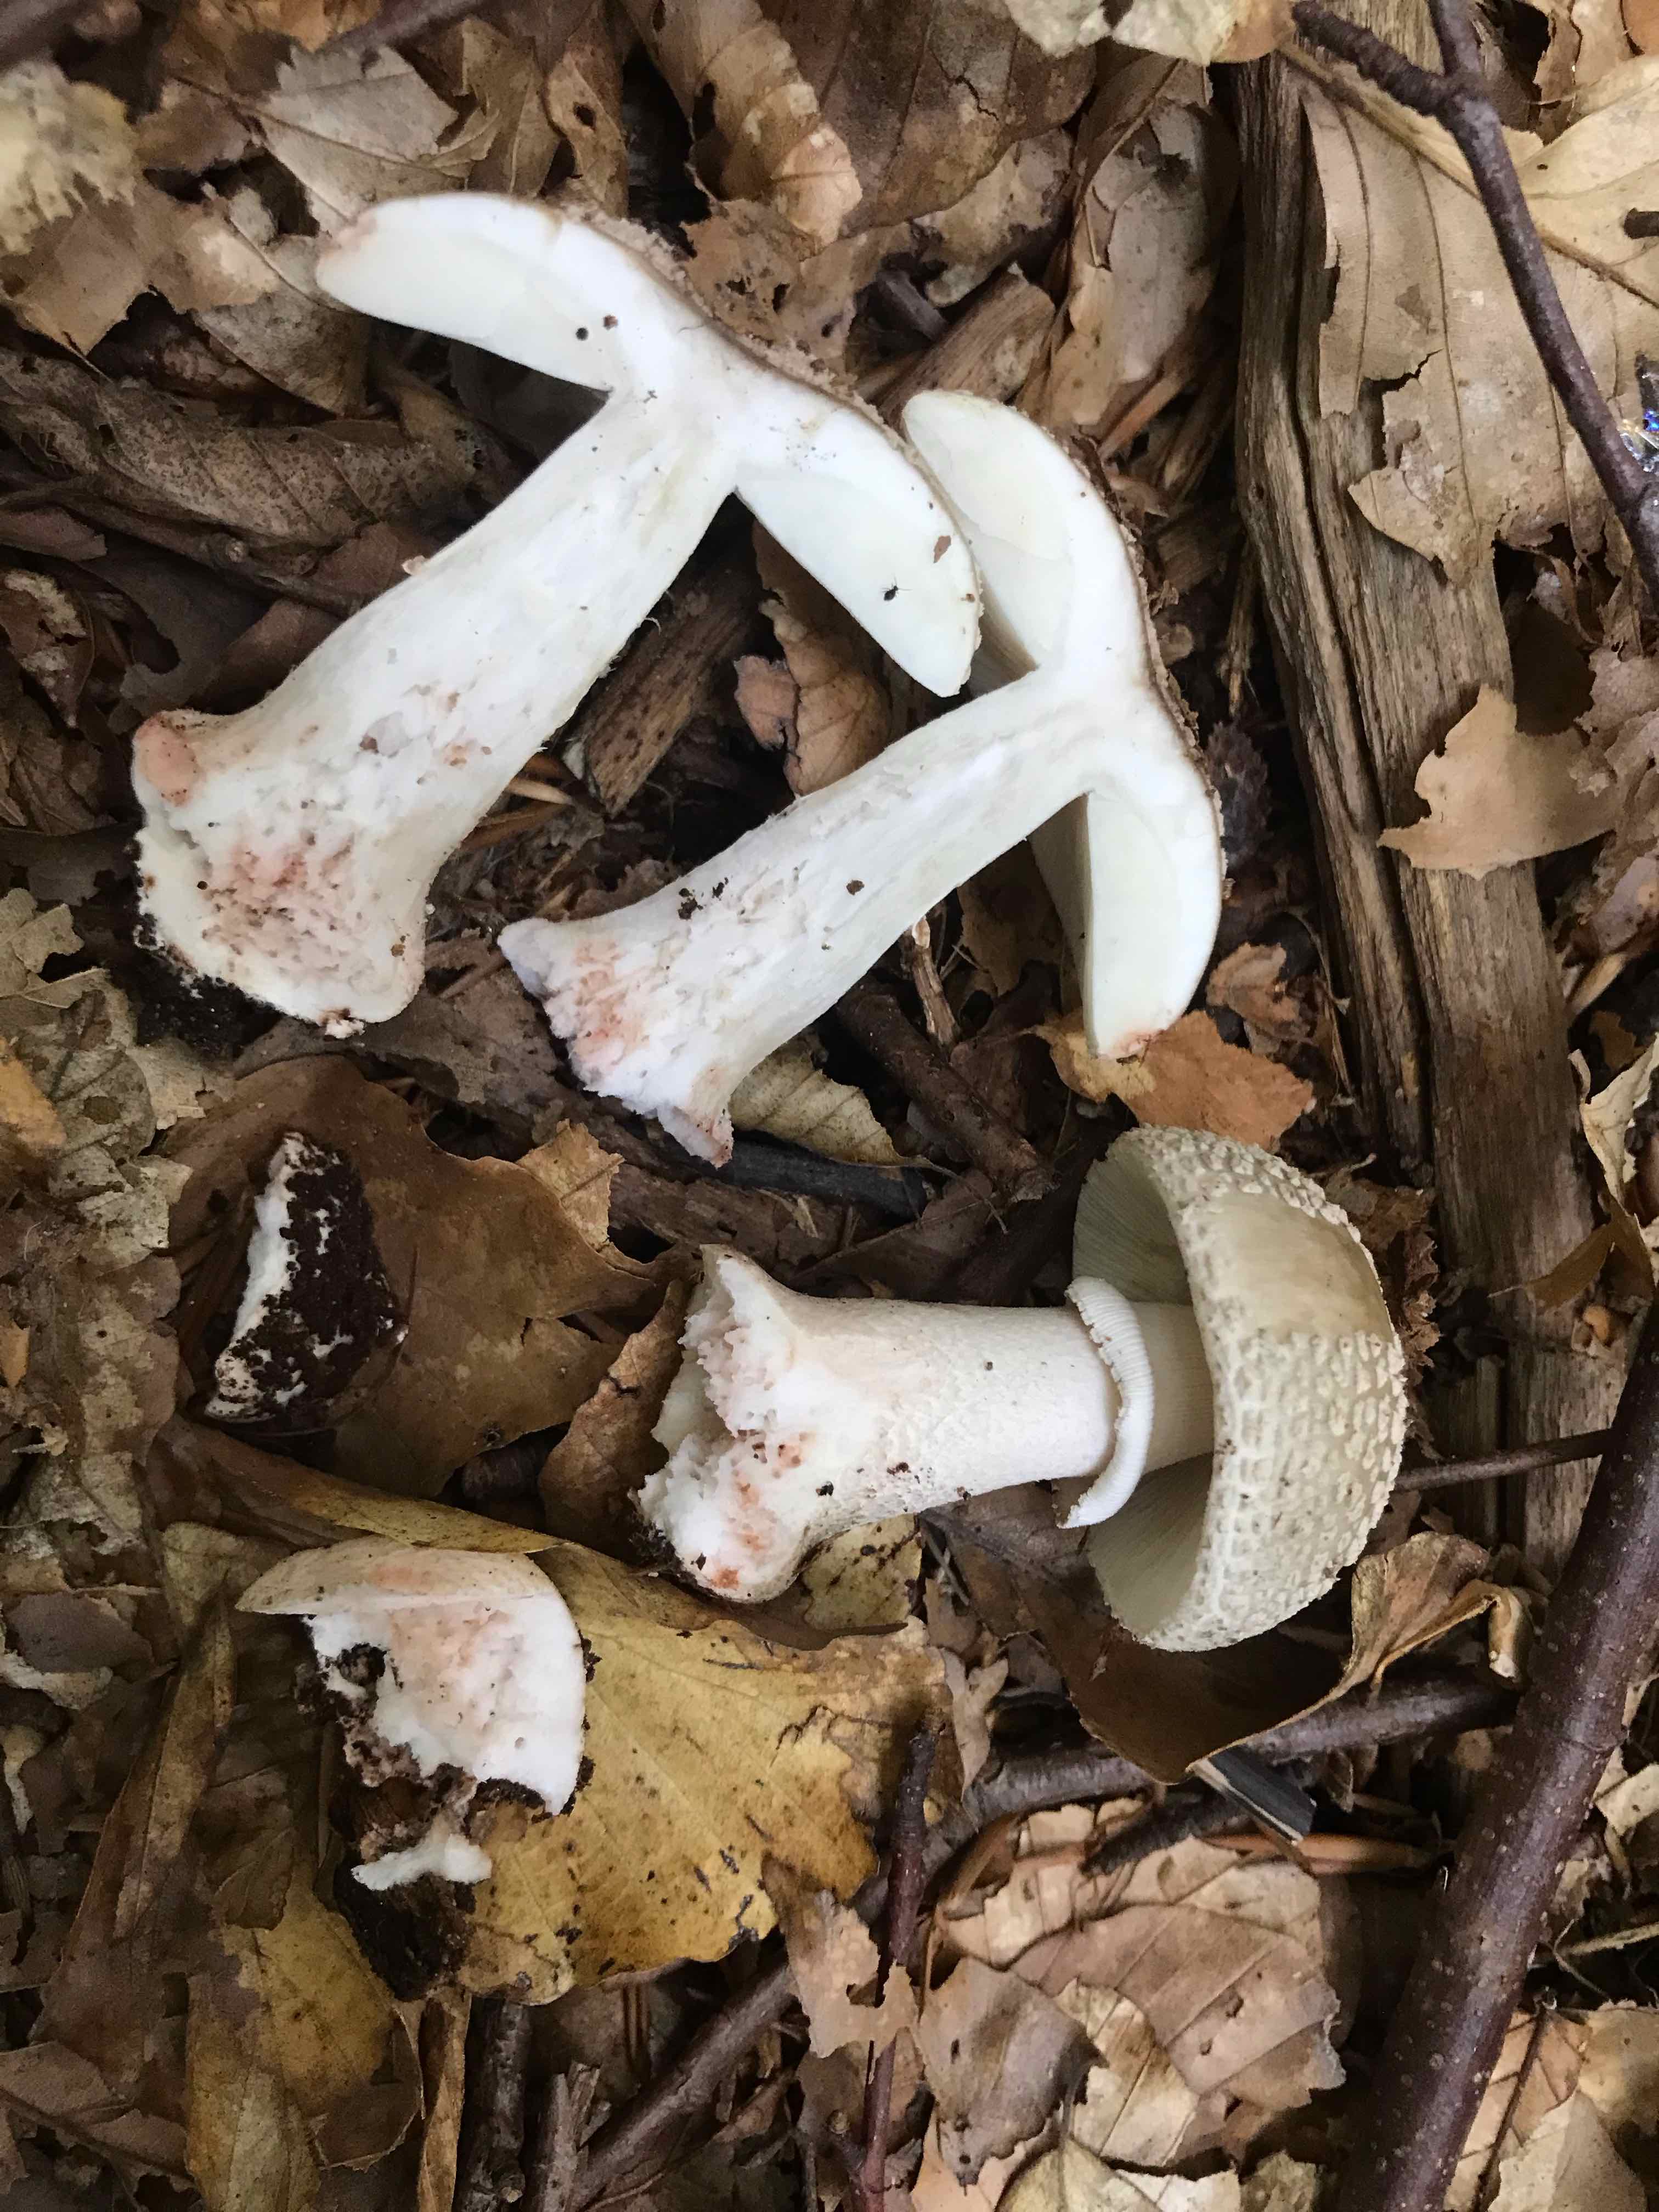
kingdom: Fungi
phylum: Basidiomycota
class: Agaricomycetes
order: Agaricales
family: Amanitaceae
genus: Amanita
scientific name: Amanita rubescens
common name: rødmende fluesvamp
